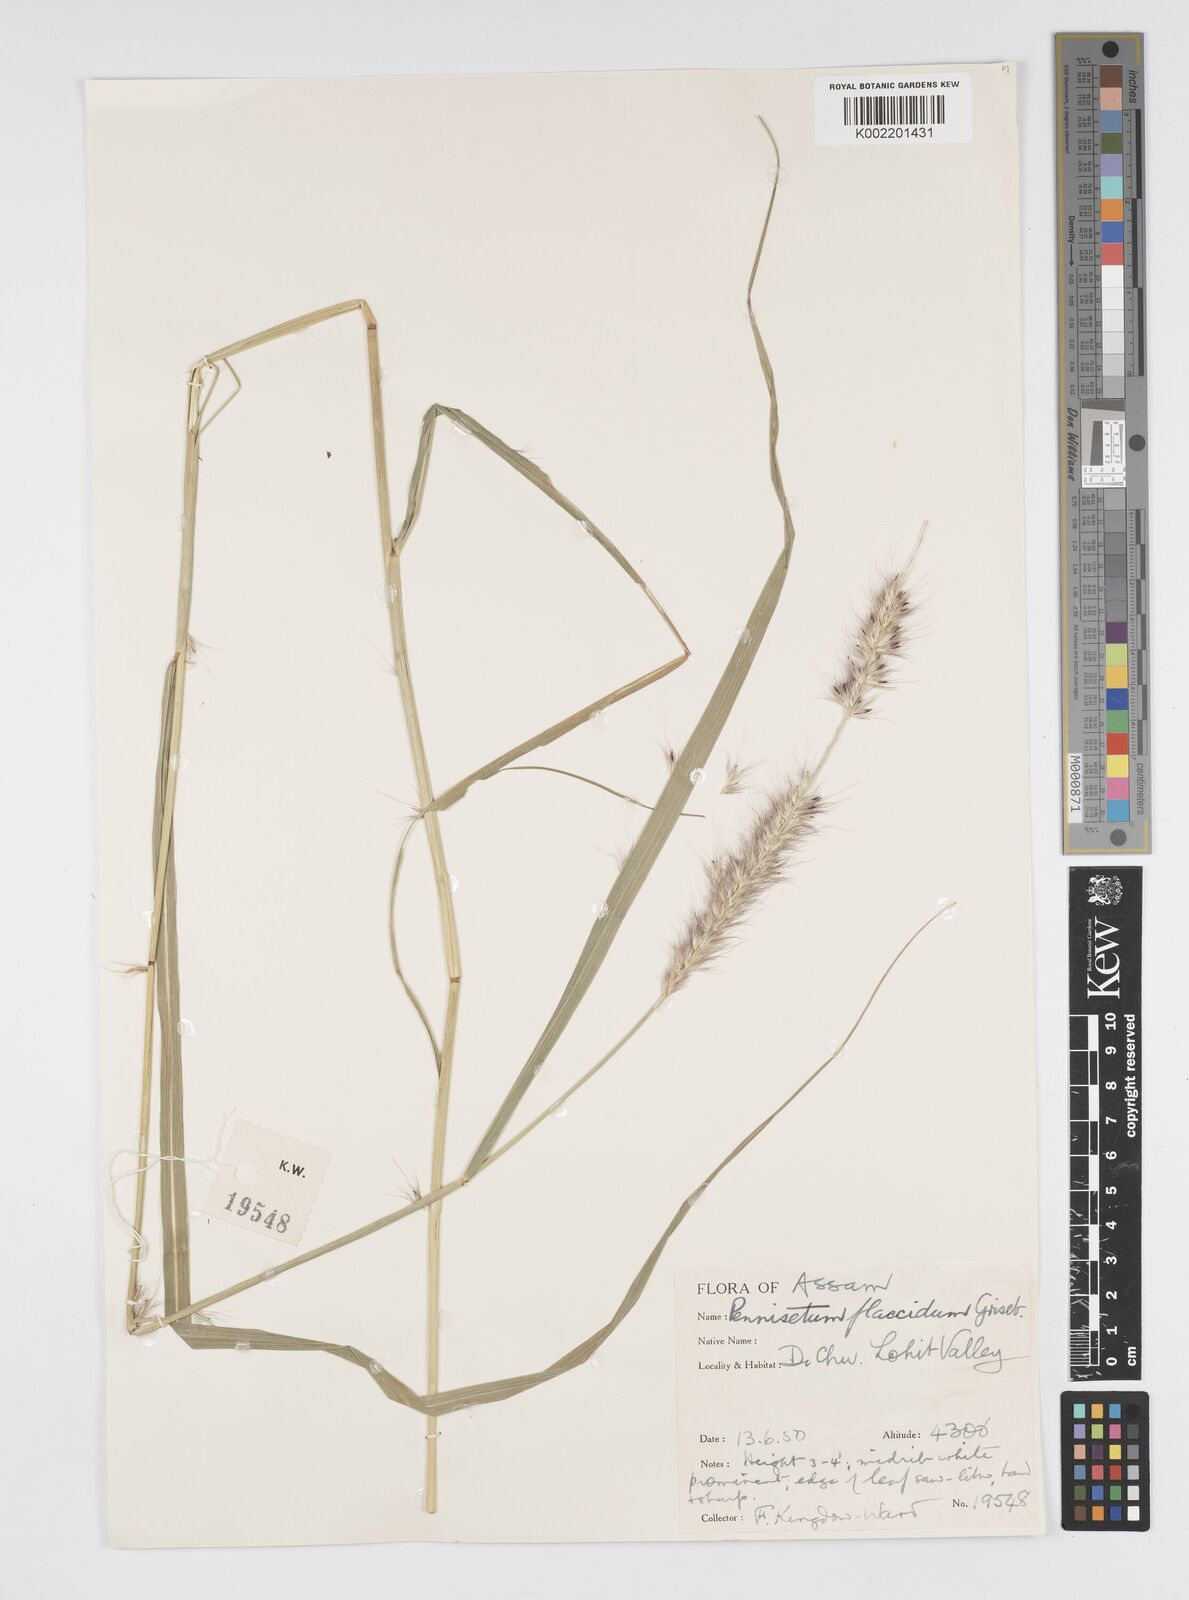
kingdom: Plantae
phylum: Tracheophyta
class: Liliopsida
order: Poales
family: Poaceae
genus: Cenchrus
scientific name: Cenchrus flaccidus
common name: Flaccid grass
